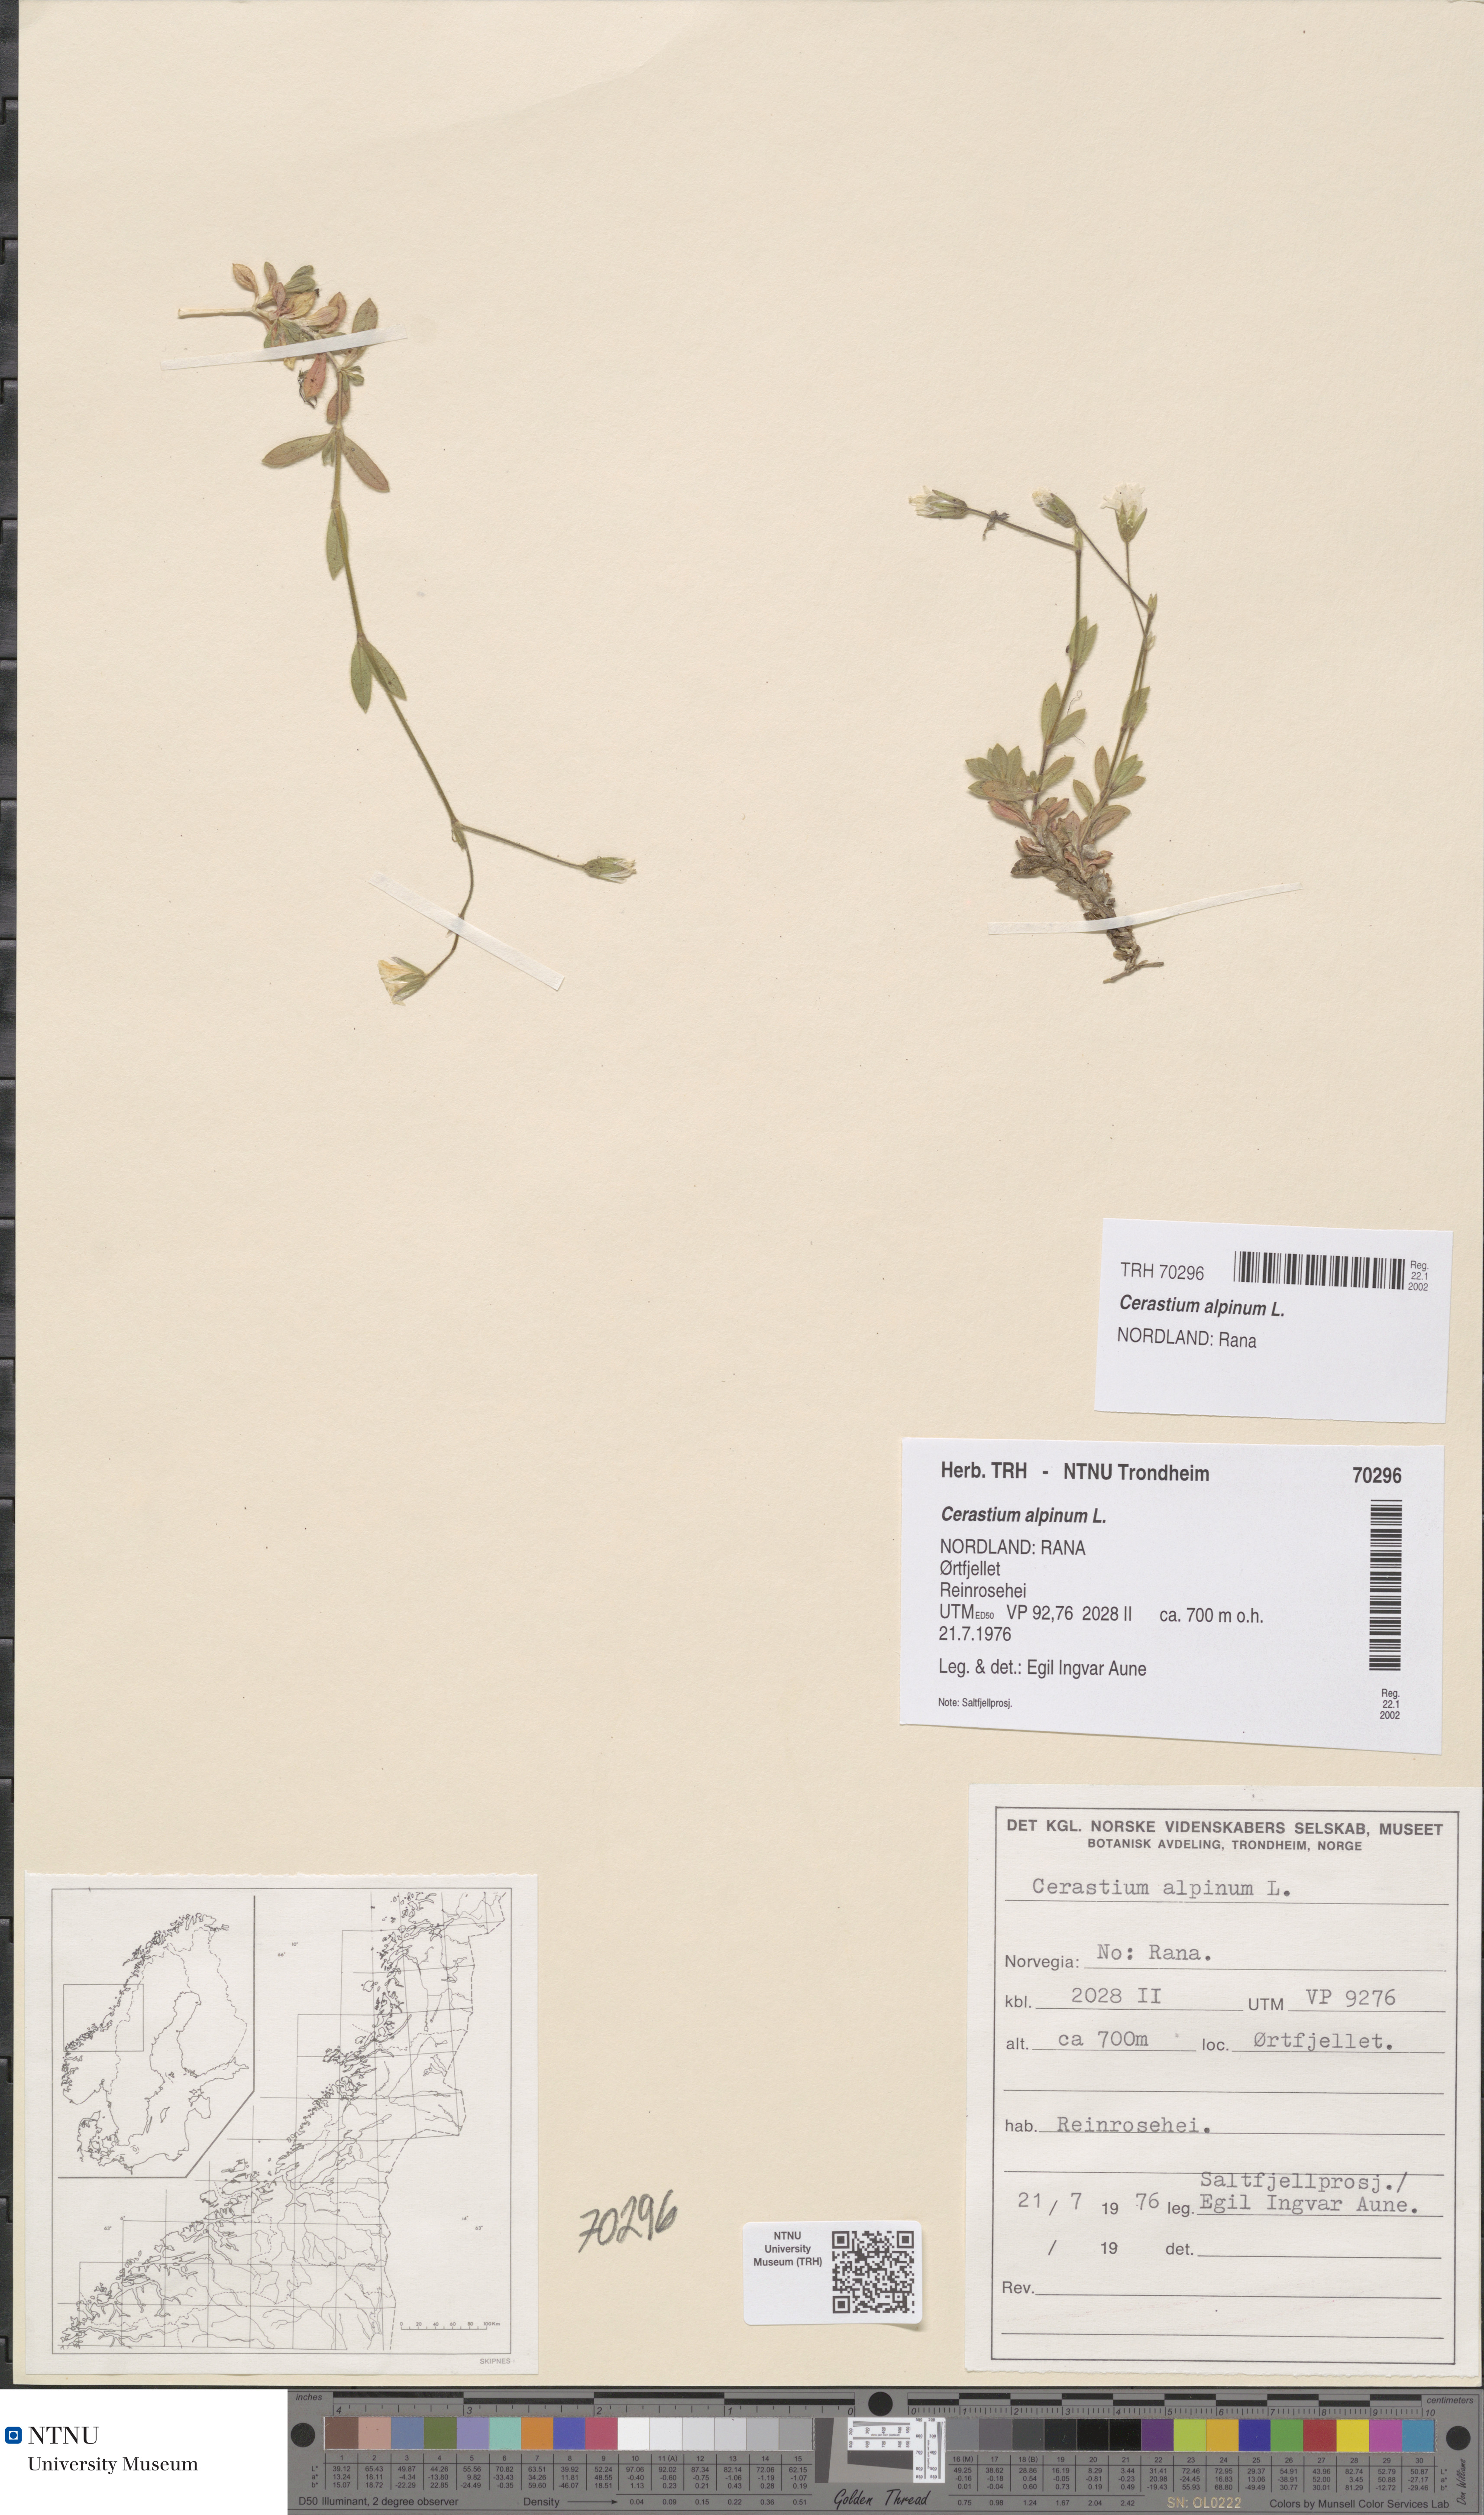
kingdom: Plantae
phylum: Tracheophyta
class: Magnoliopsida
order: Caryophyllales
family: Caryophyllaceae
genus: Cerastium
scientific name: Cerastium alpinum
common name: Alpine mouse-ear
